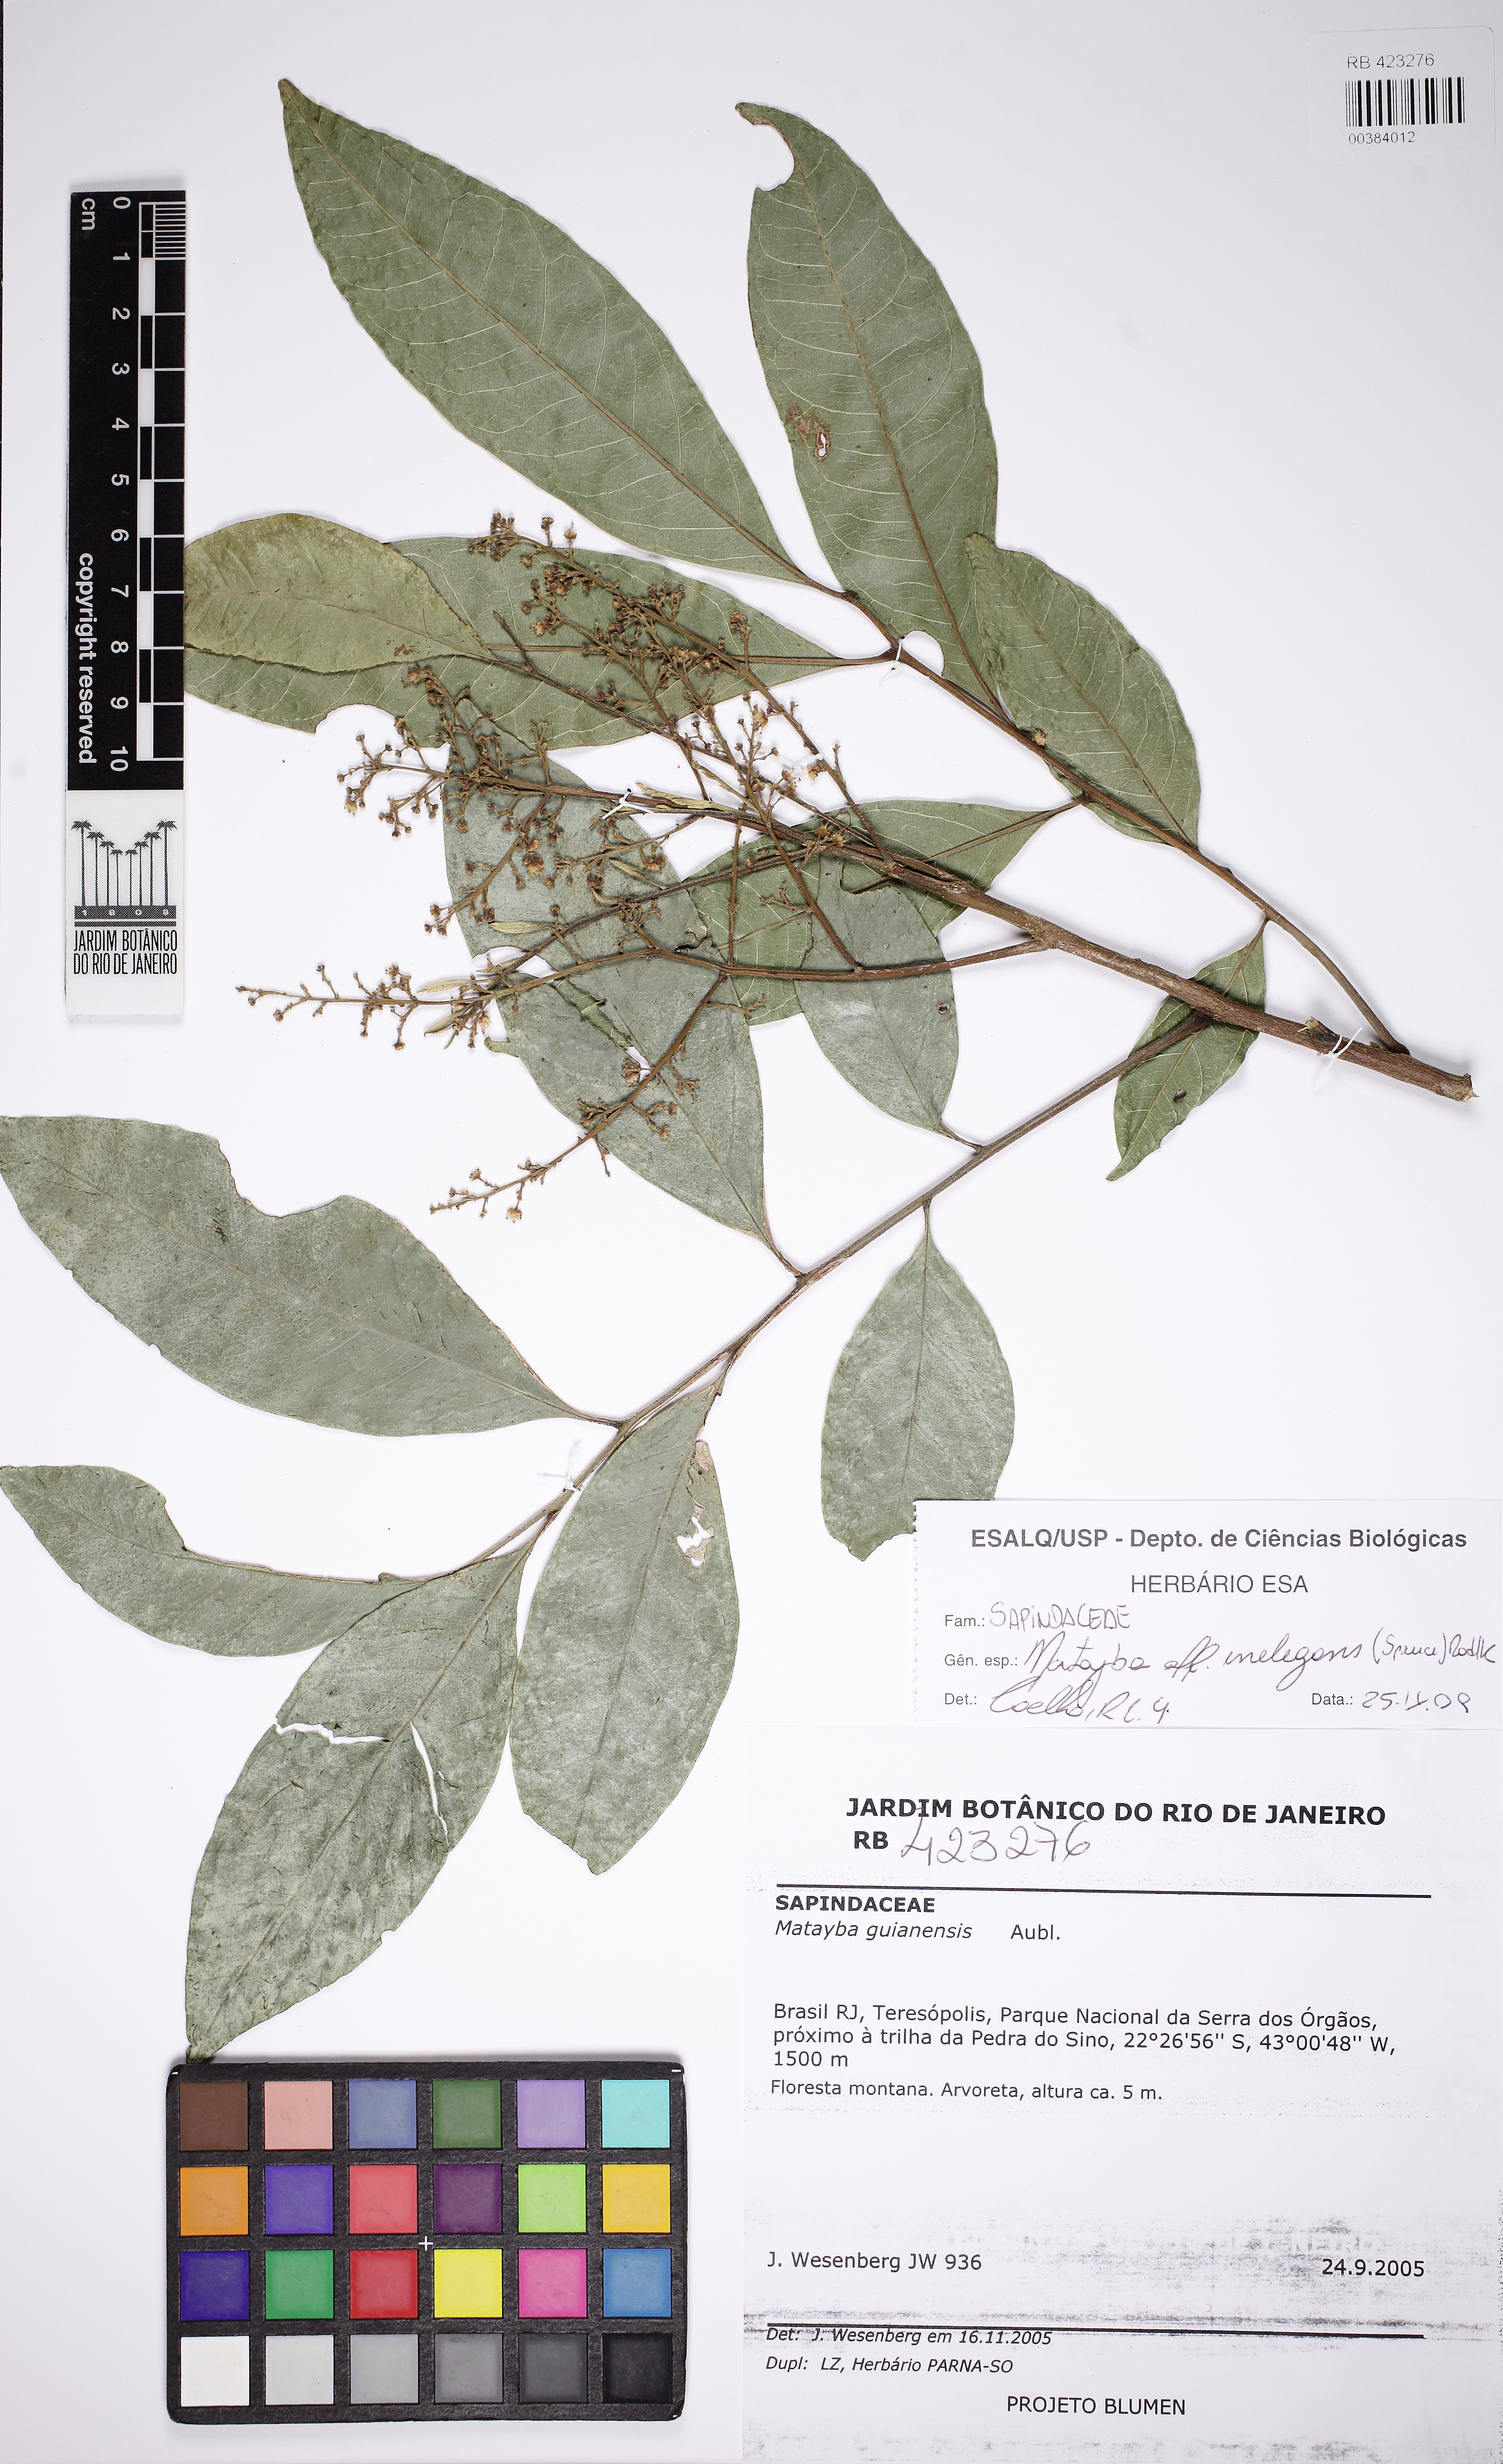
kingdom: Plantae
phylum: Tracheophyta
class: Magnoliopsida
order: Sapindales
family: Sapindaceae
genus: Matayba
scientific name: Matayba inelegans
